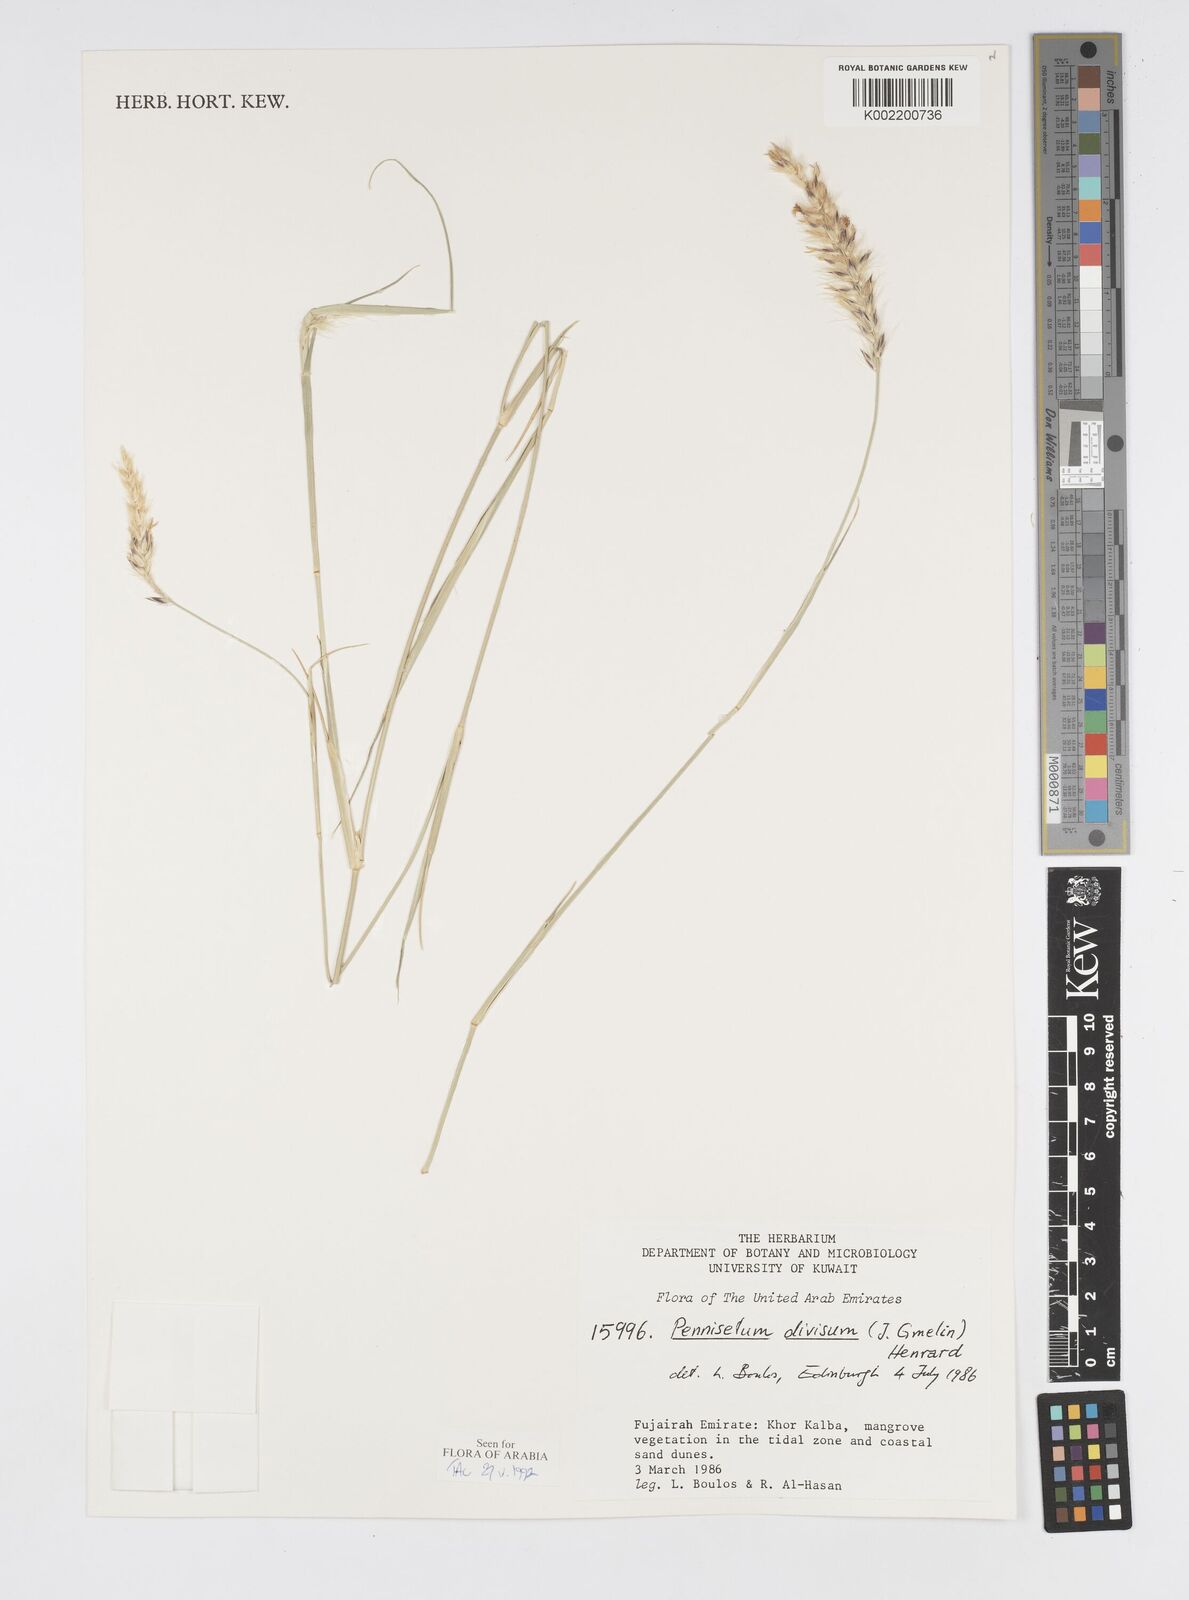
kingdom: Plantae
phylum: Tracheophyta
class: Liliopsida
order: Poales
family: Poaceae
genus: Cenchrus
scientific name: Cenchrus divisus
